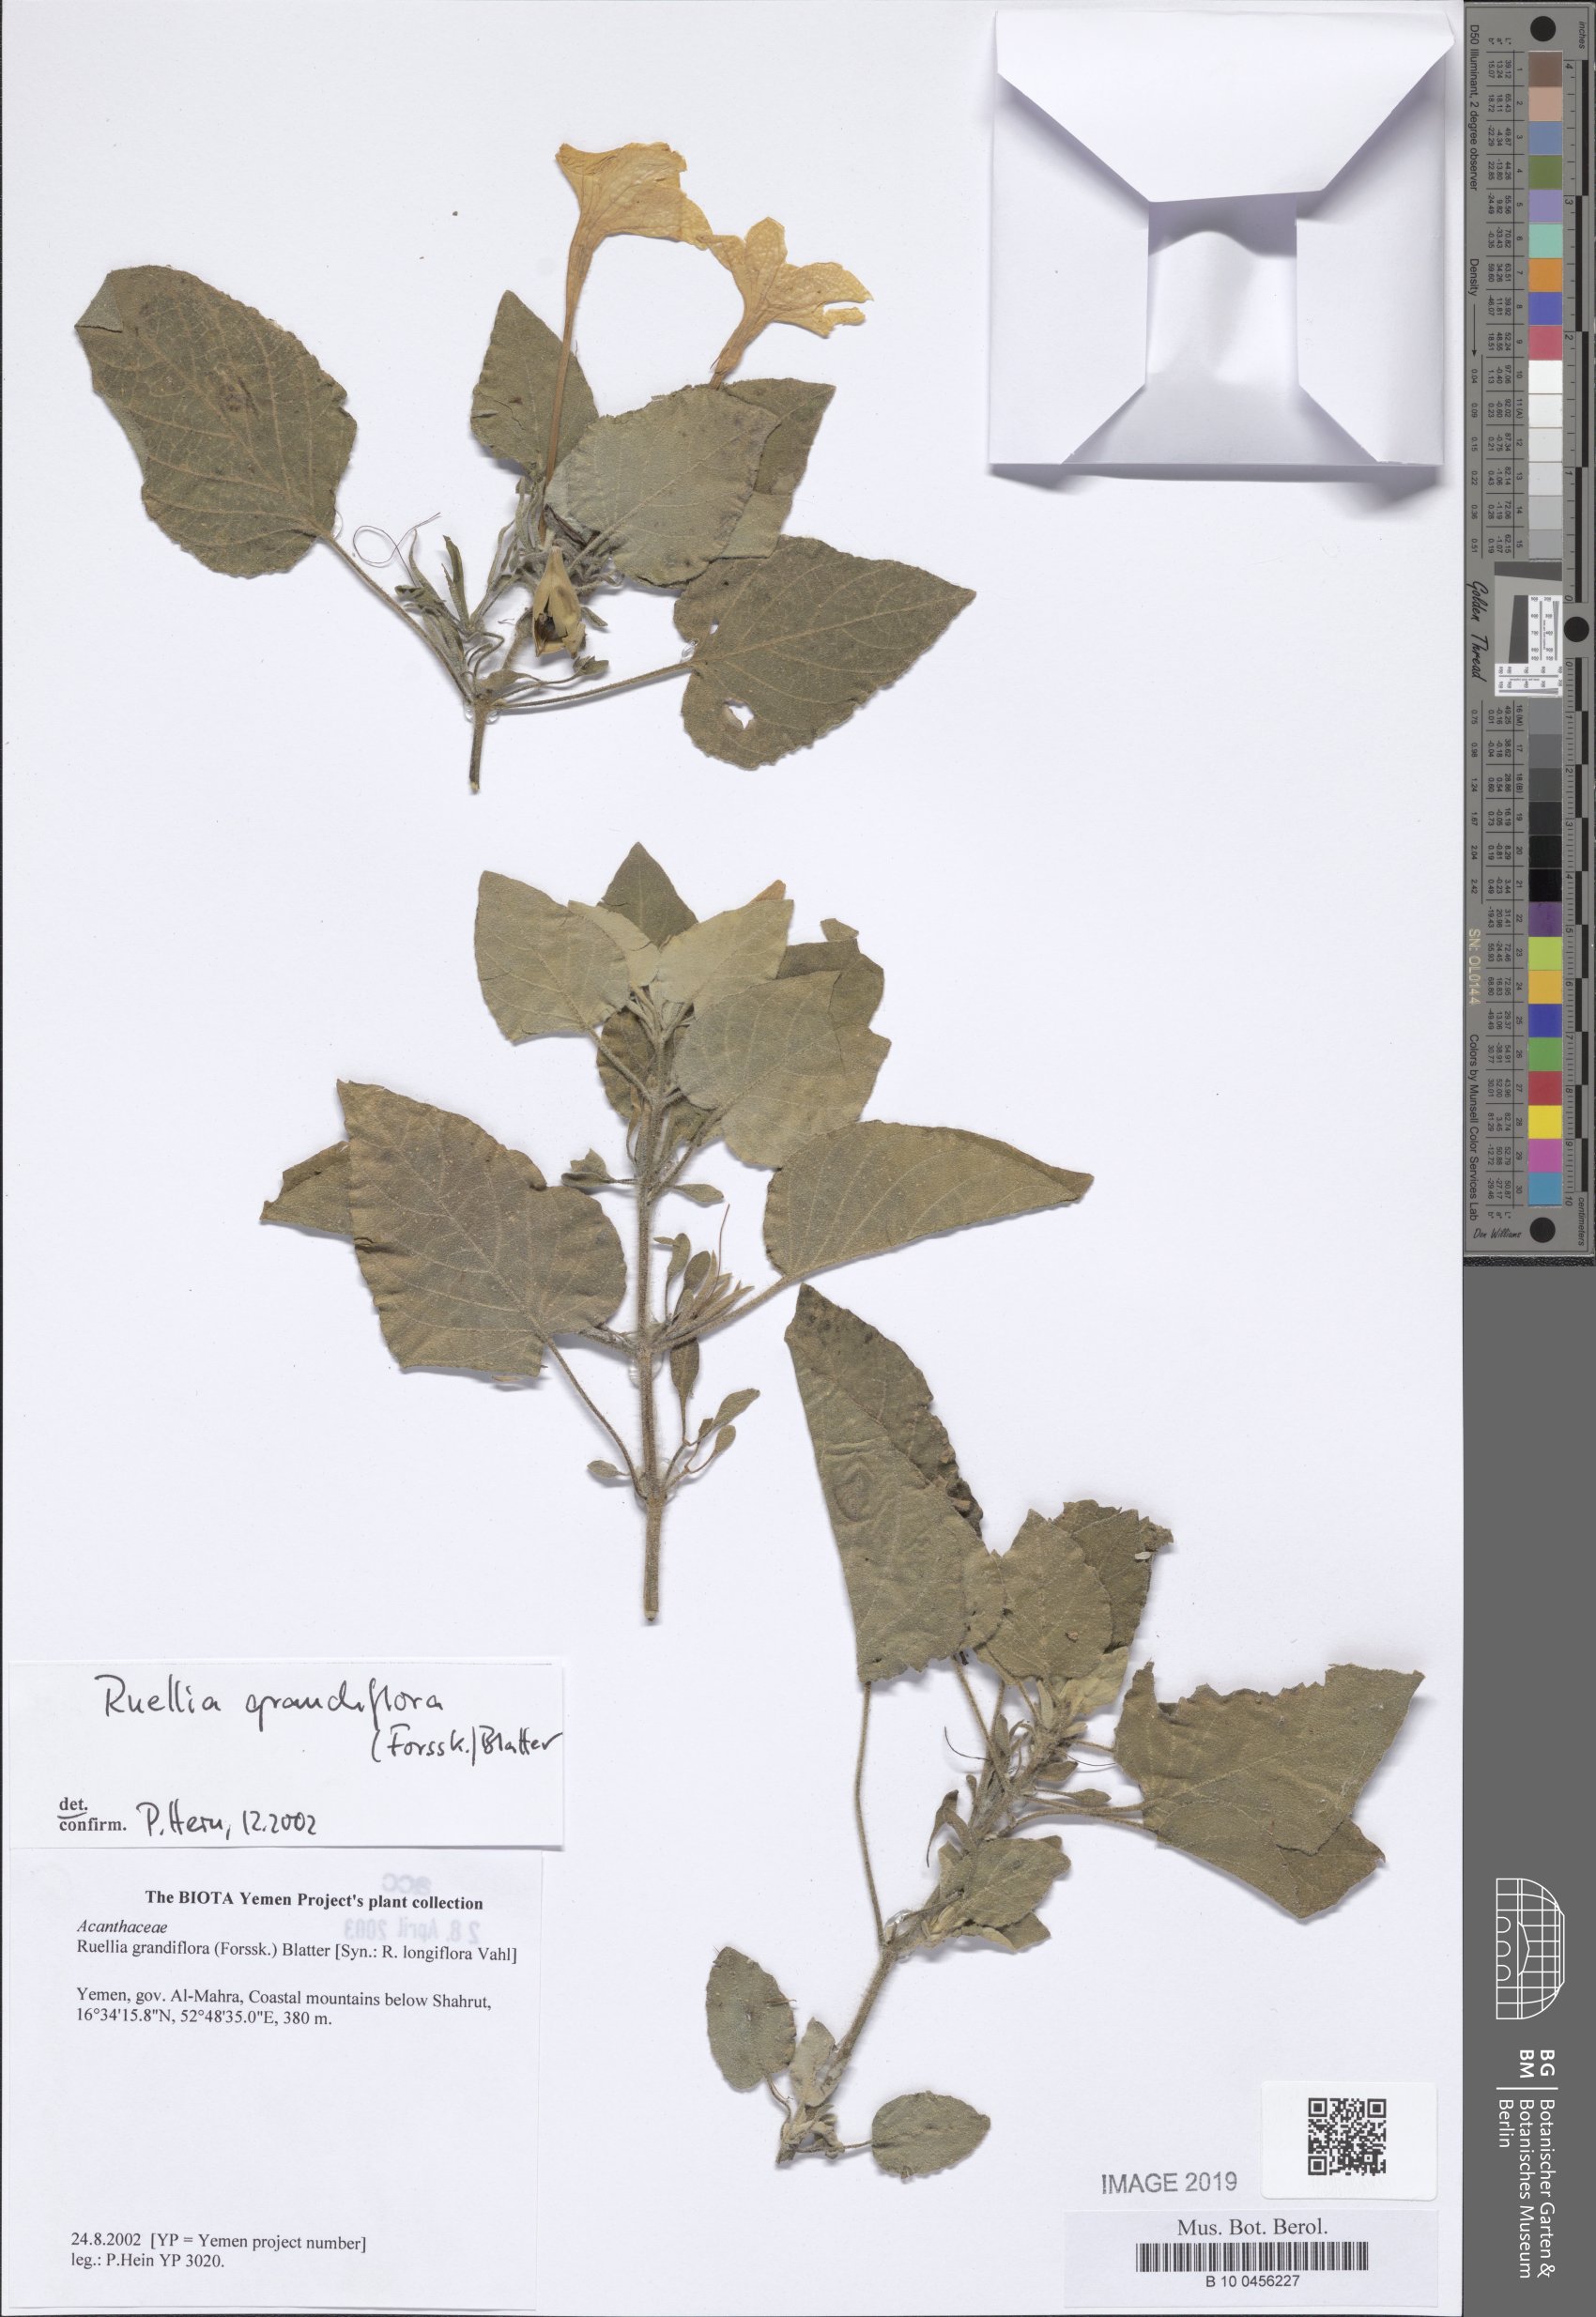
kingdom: Plantae
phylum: Tracheophyta
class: Magnoliopsida
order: Lamiales
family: Acanthaceae
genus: Ruellia
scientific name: Ruellia grandiflora
